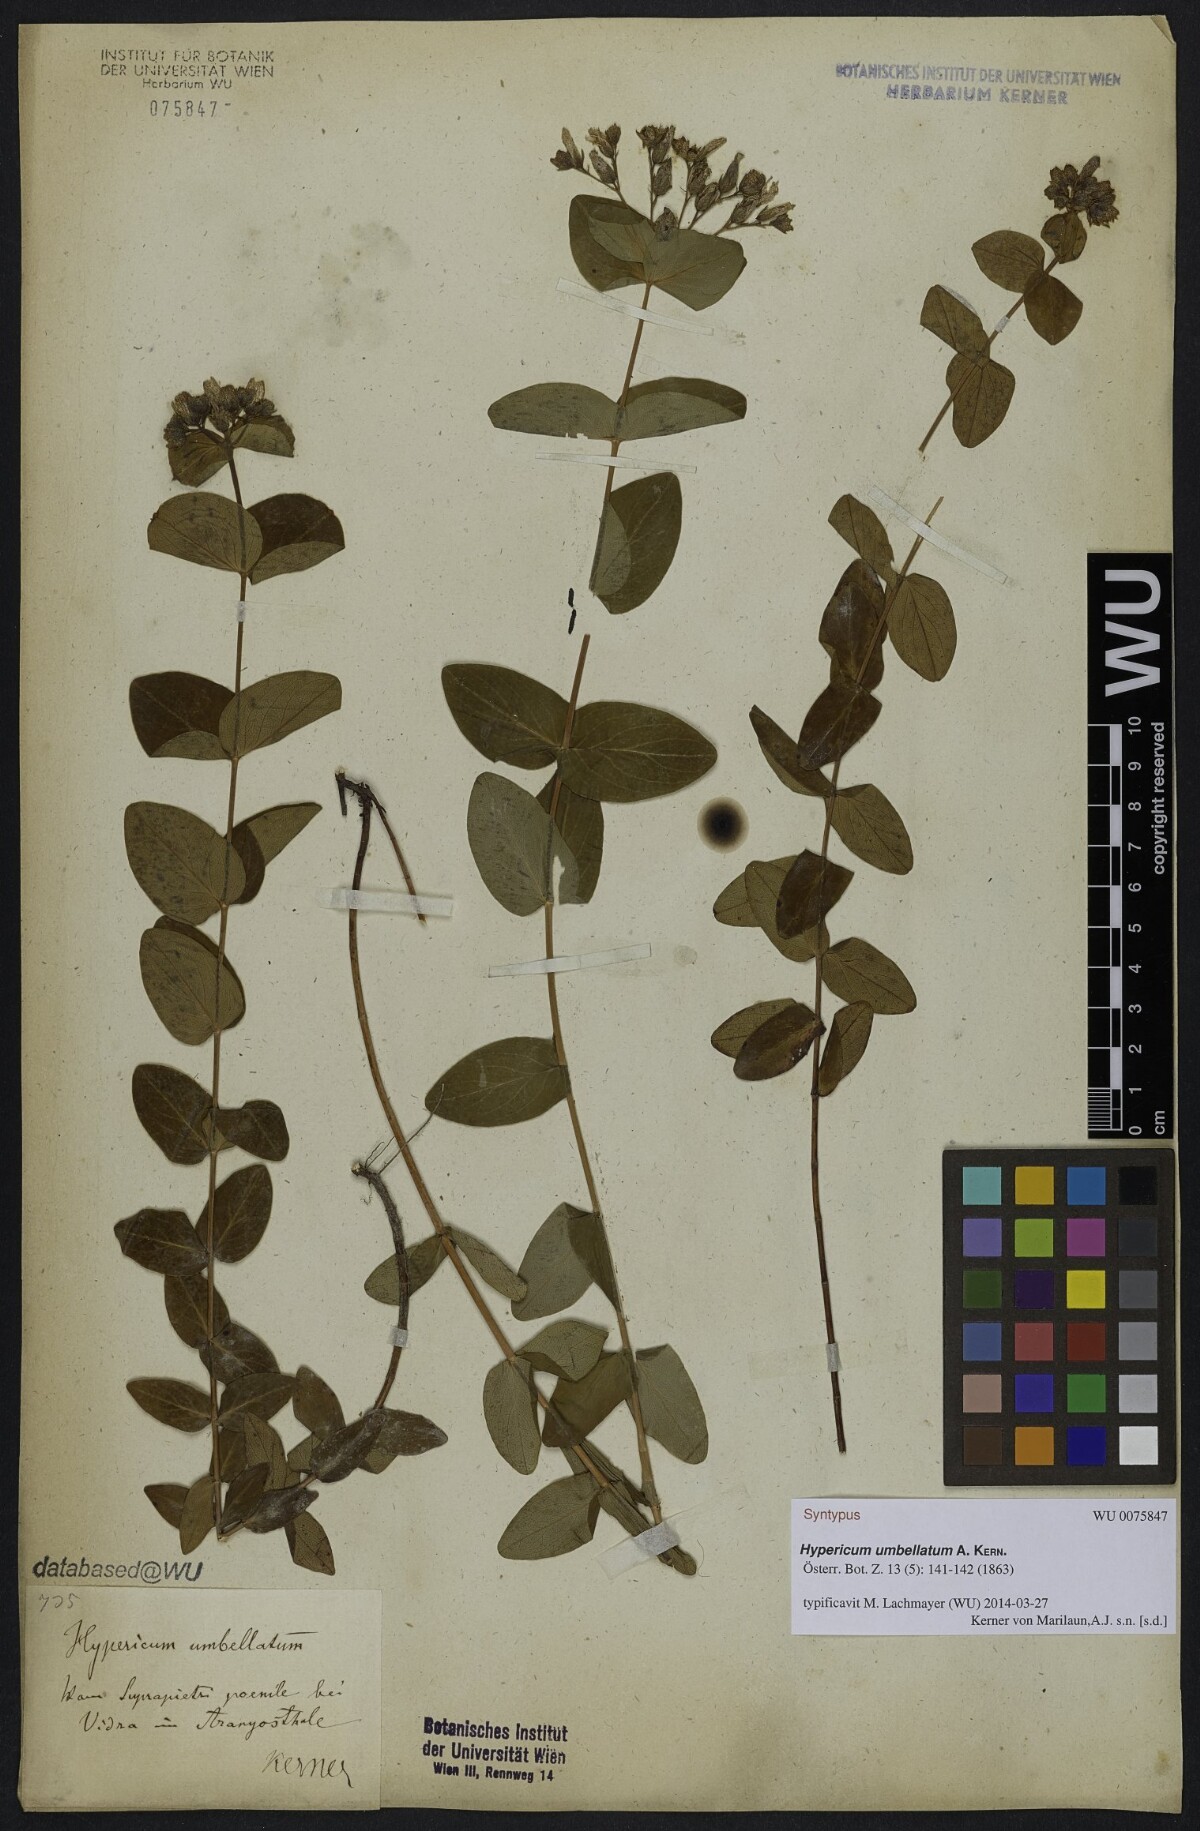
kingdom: Plantae
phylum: Tracheophyta
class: Magnoliopsida
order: Malpighiales
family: Hypericaceae
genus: Hypericum
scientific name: Hypericum umbellatum
